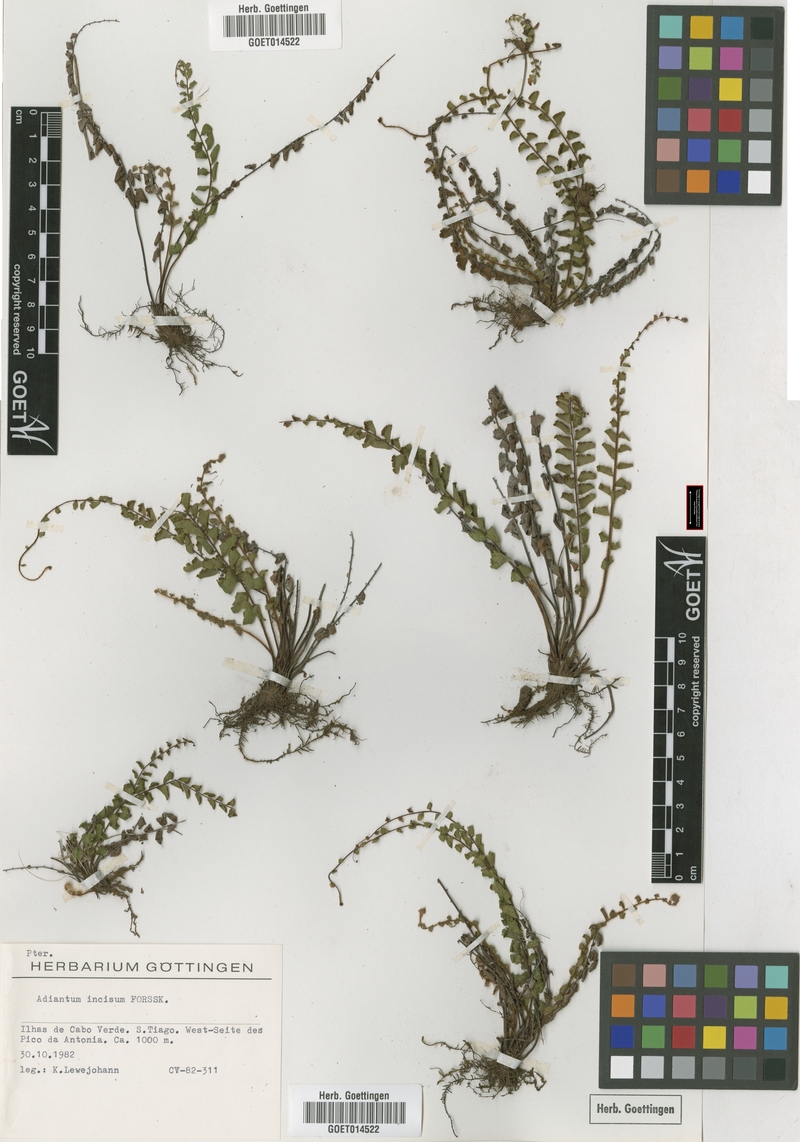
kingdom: Plantae
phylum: Tracheophyta
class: Polypodiopsida
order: Polypodiales
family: Pteridaceae
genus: Adiantum
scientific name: Adiantum incisum
